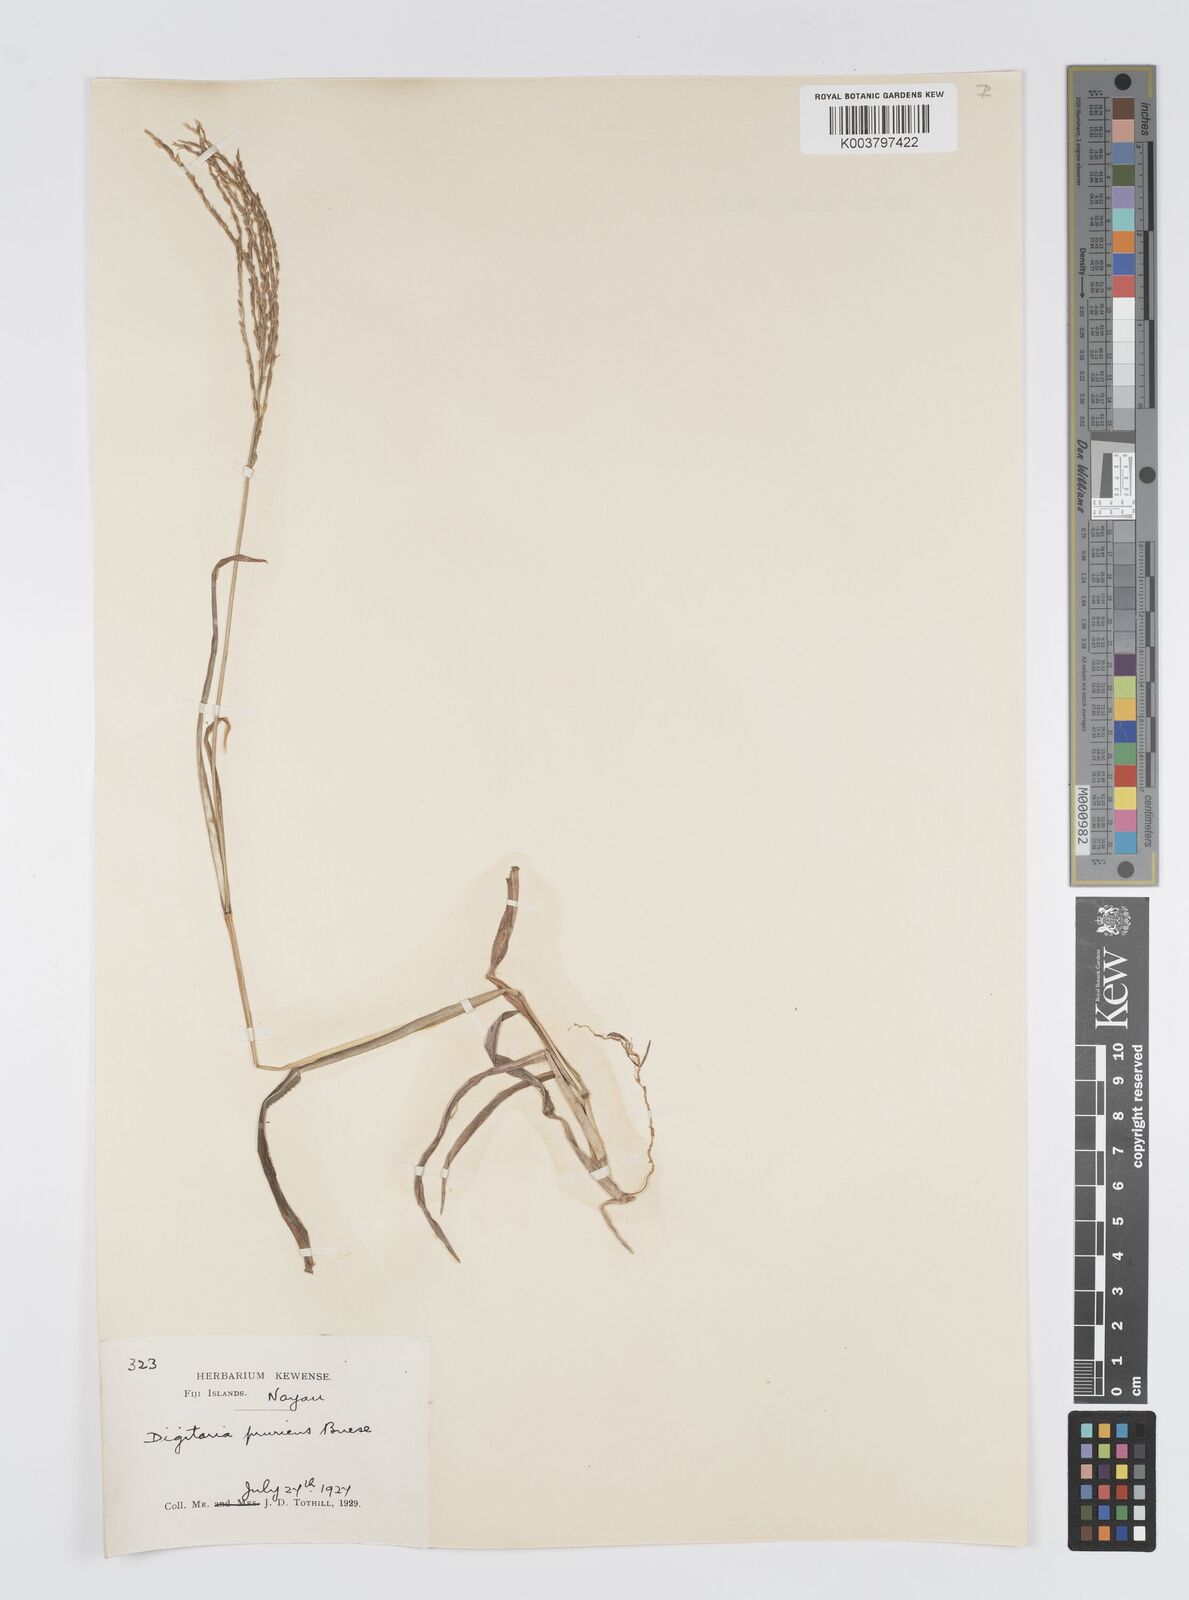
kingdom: Plantae
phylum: Tracheophyta
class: Liliopsida
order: Poales
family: Poaceae
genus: Digitaria
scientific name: Digitaria setigera
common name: East indian crabgrass
